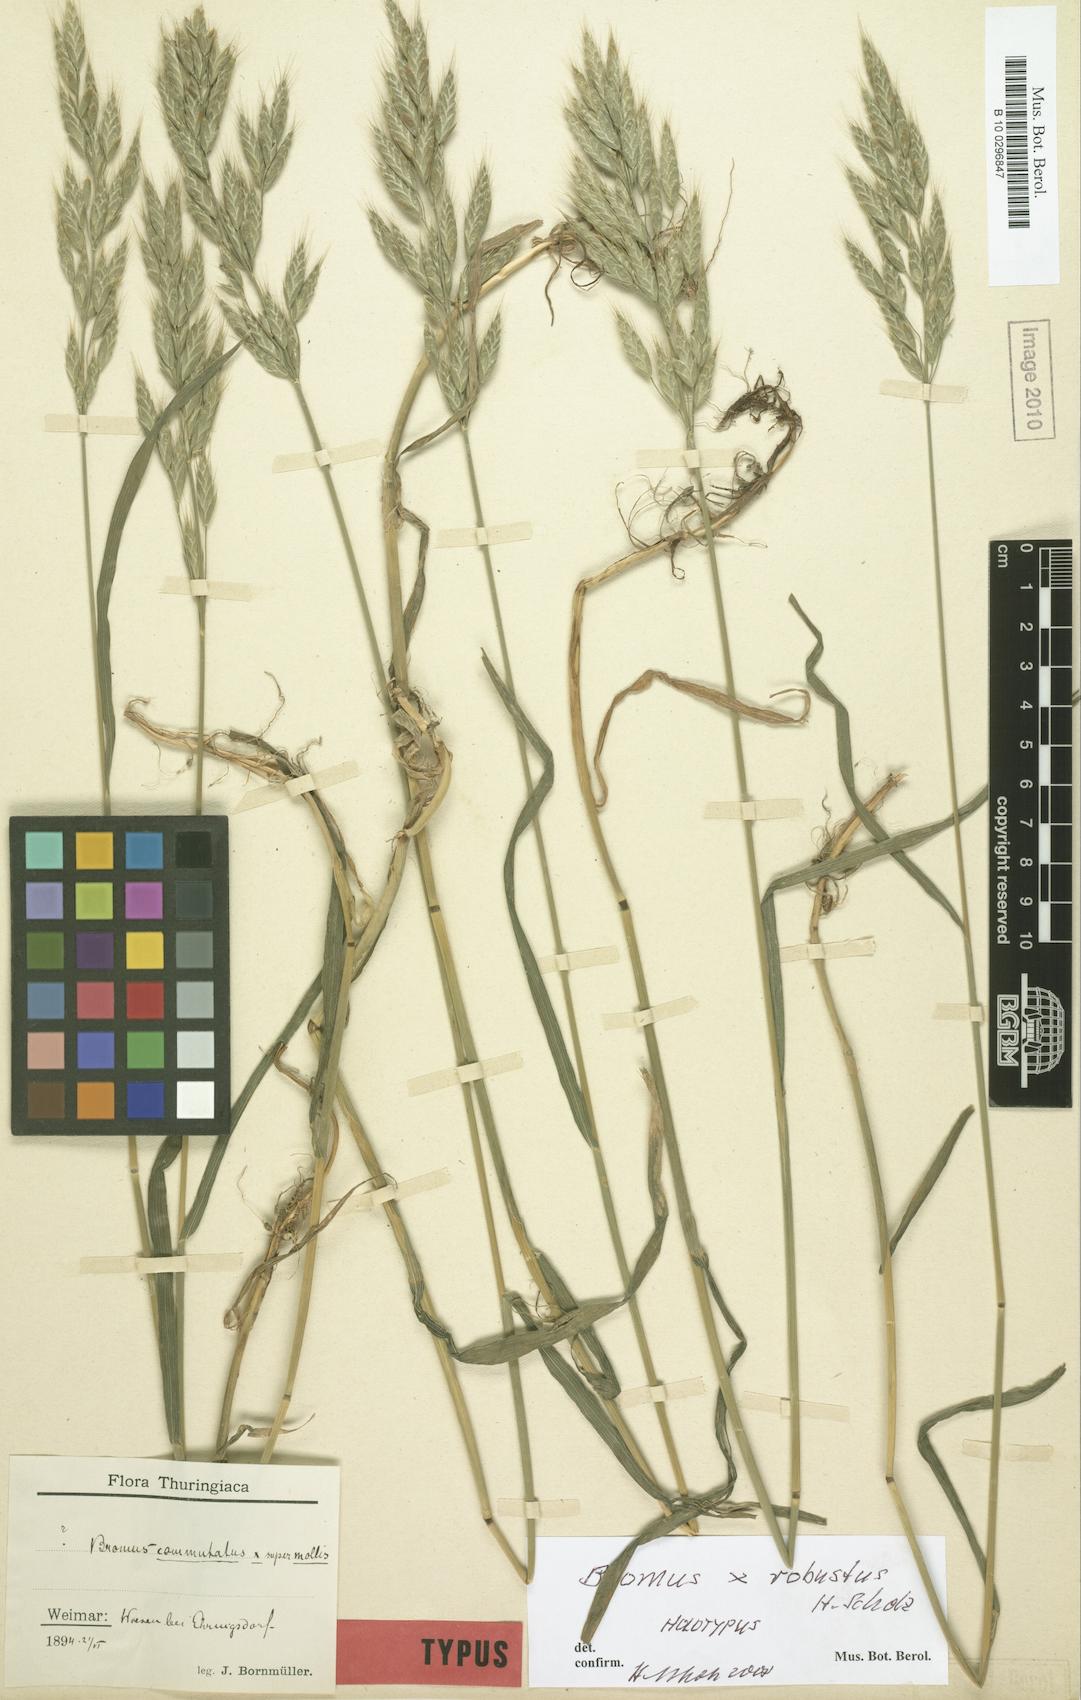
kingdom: Plantae
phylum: Tracheophyta
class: Liliopsida
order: Poales
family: Poaceae
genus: Bromus
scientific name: Bromus robustus
